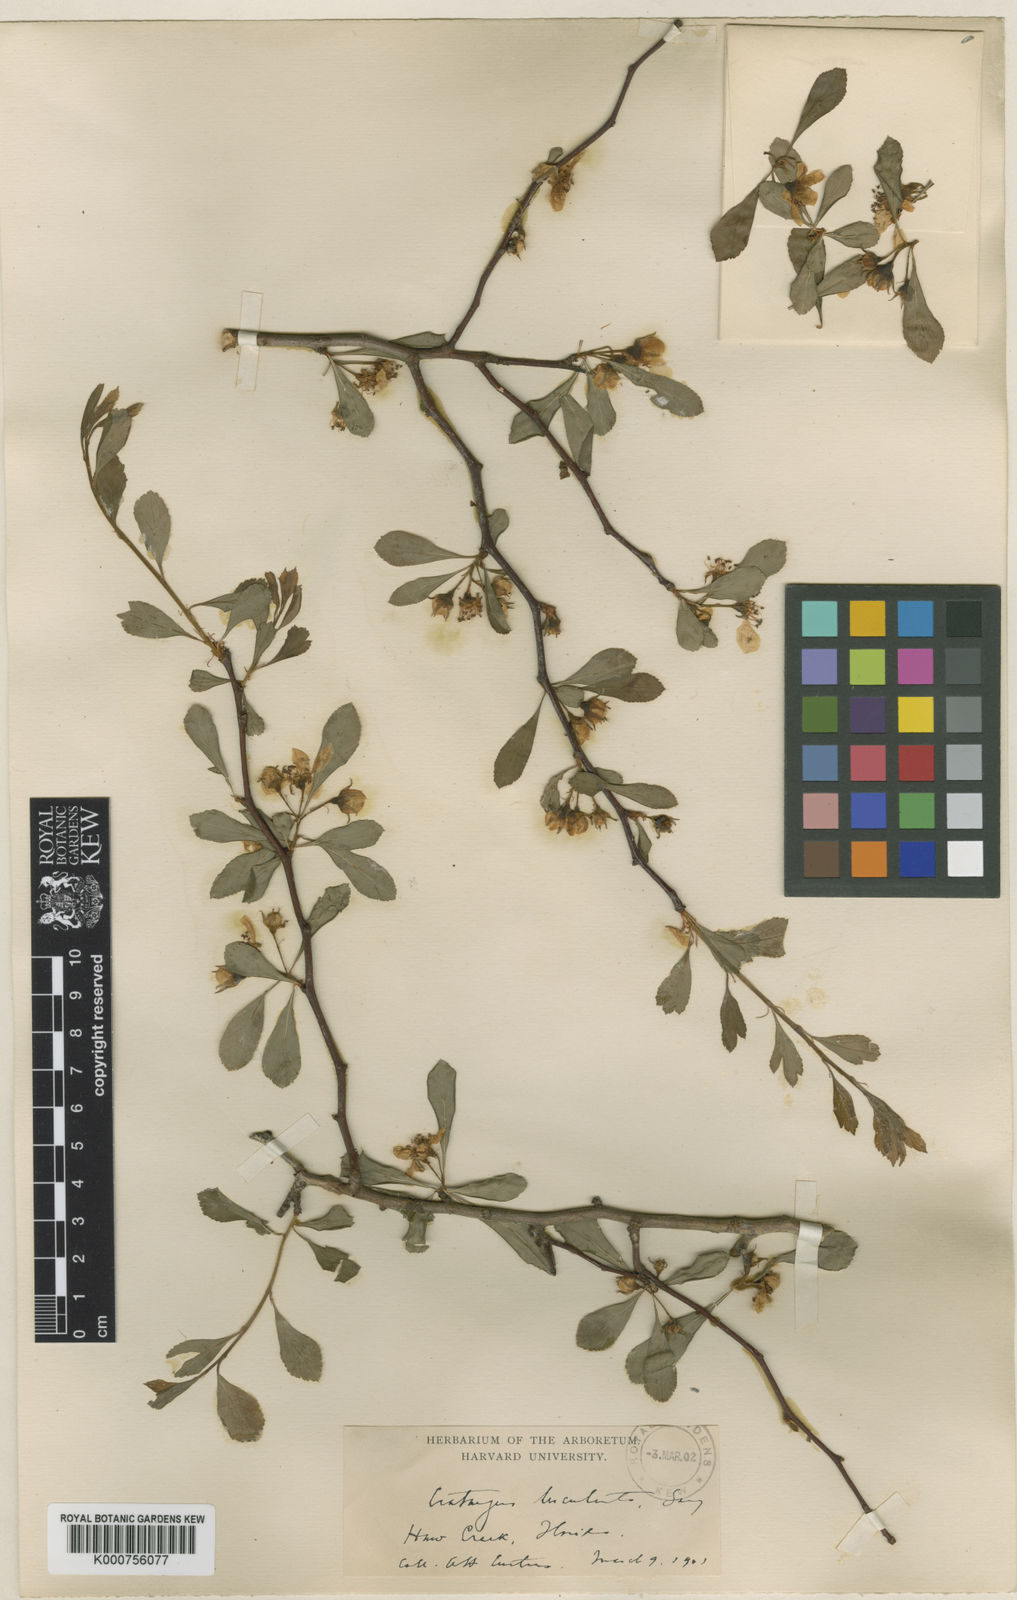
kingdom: Plantae
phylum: Tracheophyta
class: Magnoliopsida
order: Rosales
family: Rosaceae
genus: Crataegus
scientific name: Crataegus aestivalis
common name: Mayhaw
